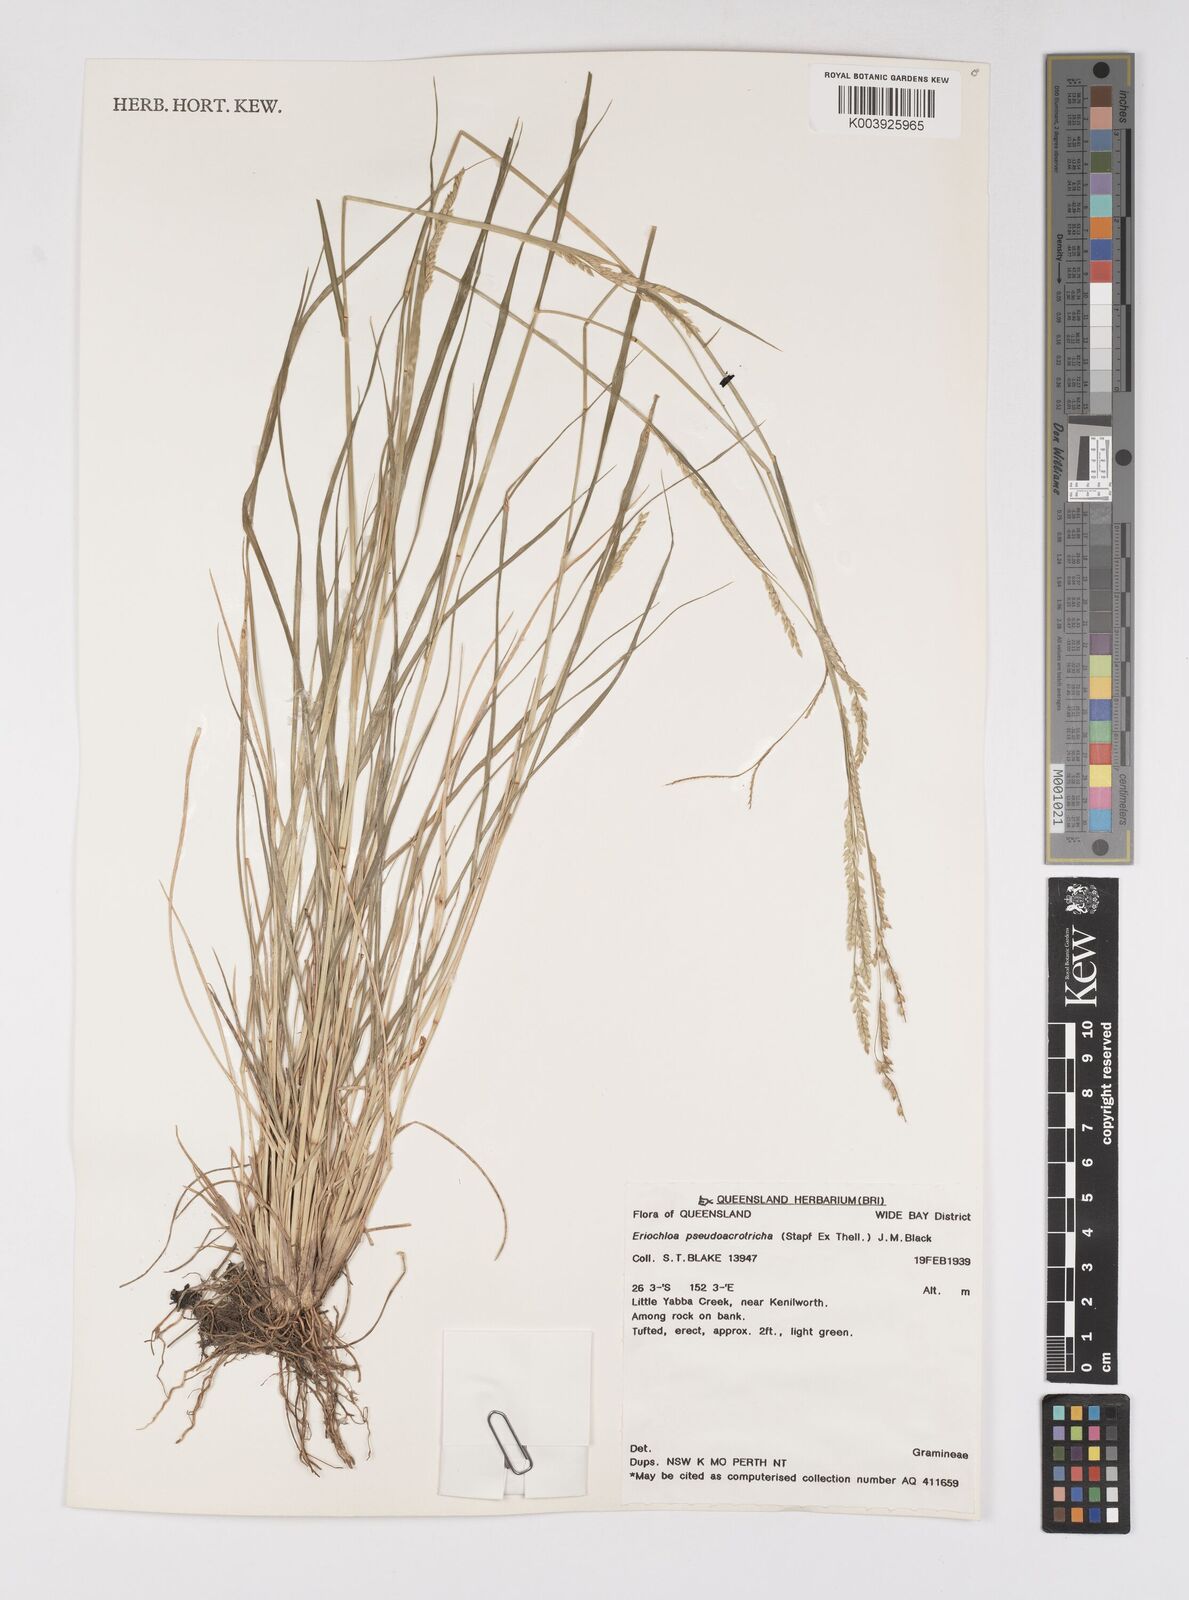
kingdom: Plantae
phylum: Tracheophyta
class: Liliopsida
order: Poales
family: Poaceae
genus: Eriochloa
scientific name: Eriochloa pseudoacrotricha
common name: Perennial cup-grass
